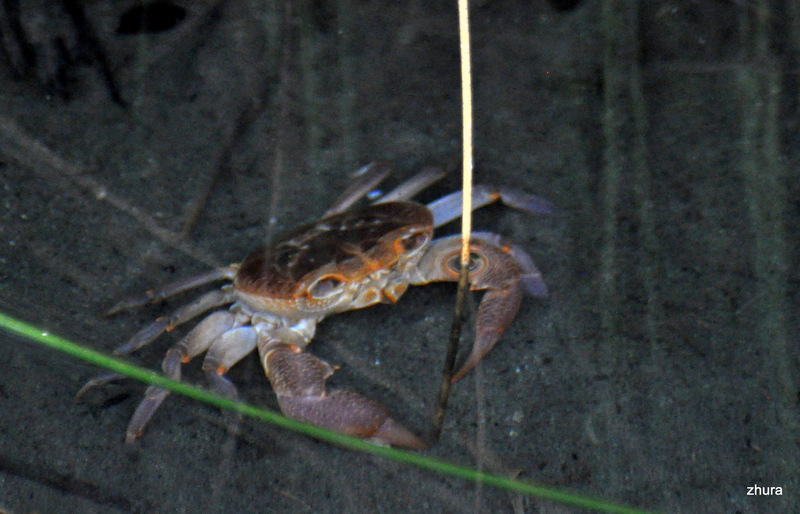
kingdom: Animalia
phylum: Arthropoda
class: Malacostraca
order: Decapoda
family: Potamidae
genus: Potamon
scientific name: Potamon ibericum
